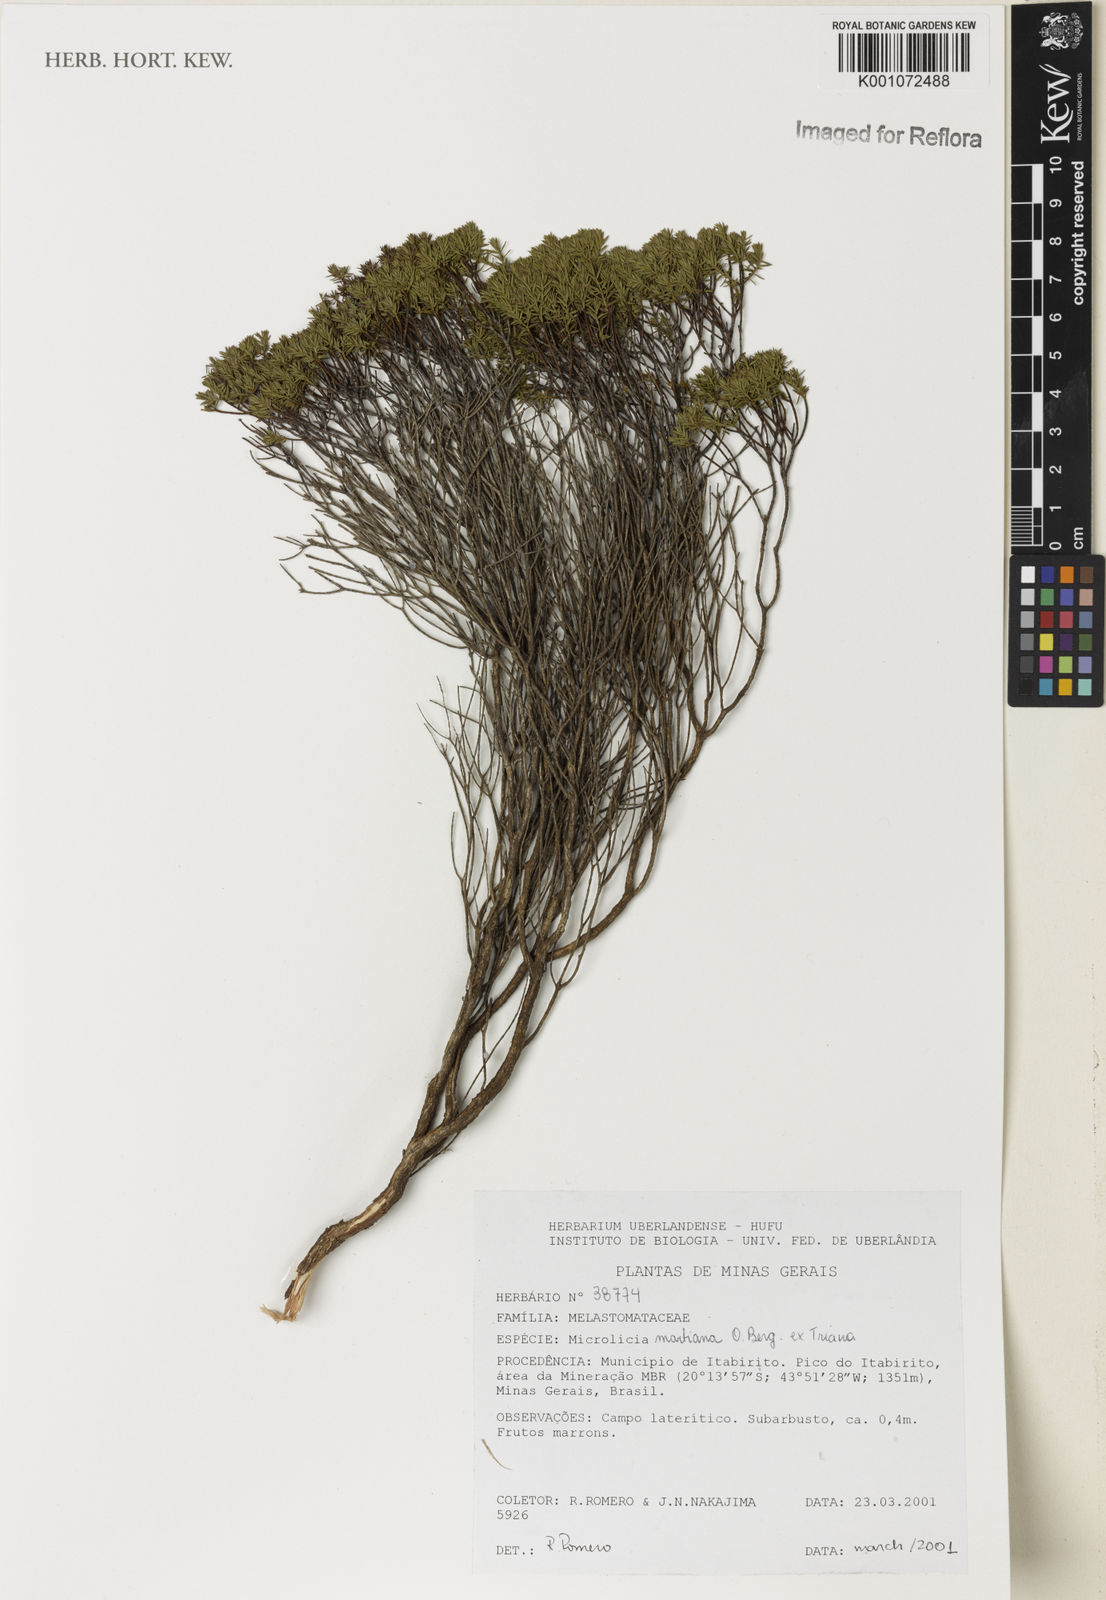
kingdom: Plantae
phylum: Tracheophyta
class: Magnoliopsida
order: Myrtales
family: Melastomataceae
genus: Microlicia
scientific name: Microlicia martiana
